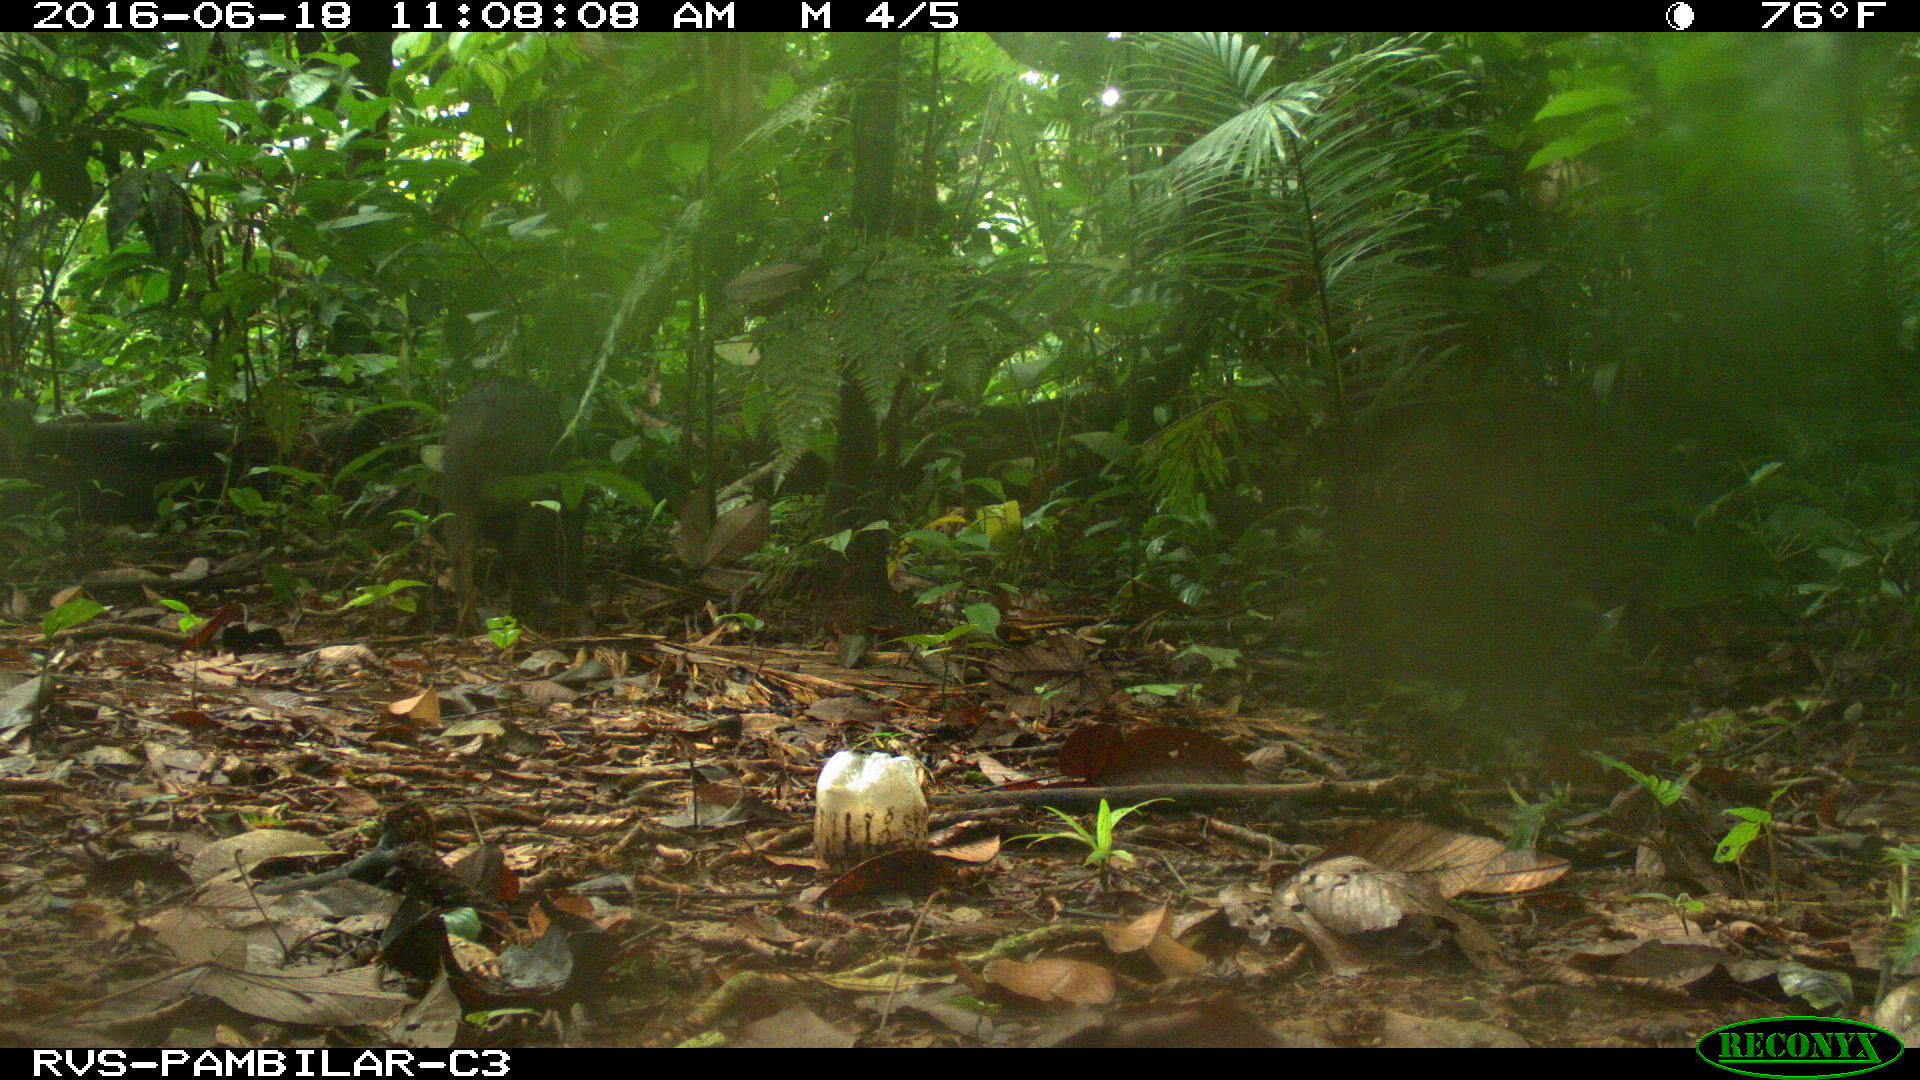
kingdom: Animalia
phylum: Chordata
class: Mammalia
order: Artiodactyla
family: Tayassuidae
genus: Tayassu
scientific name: Tayassu pecari
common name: White-lipped peccary
